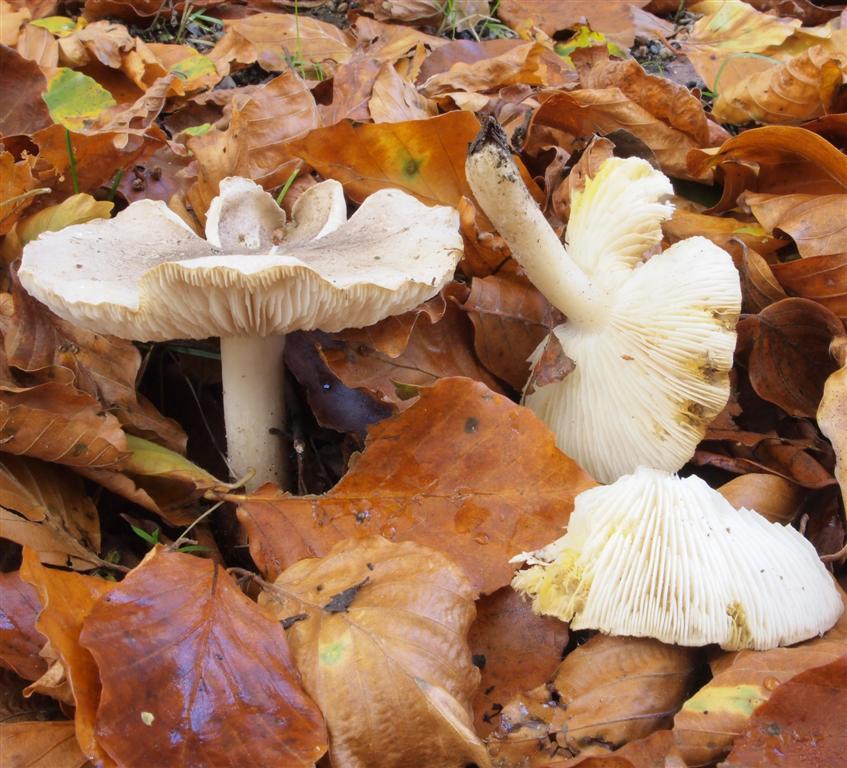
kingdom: Fungi
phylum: Basidiomycota
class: Agaricomycetes
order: Agaricales
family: Tricholomataceae
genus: Tricholoma
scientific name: Tricholoma scalpturatum
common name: gulplettet ridderhat
